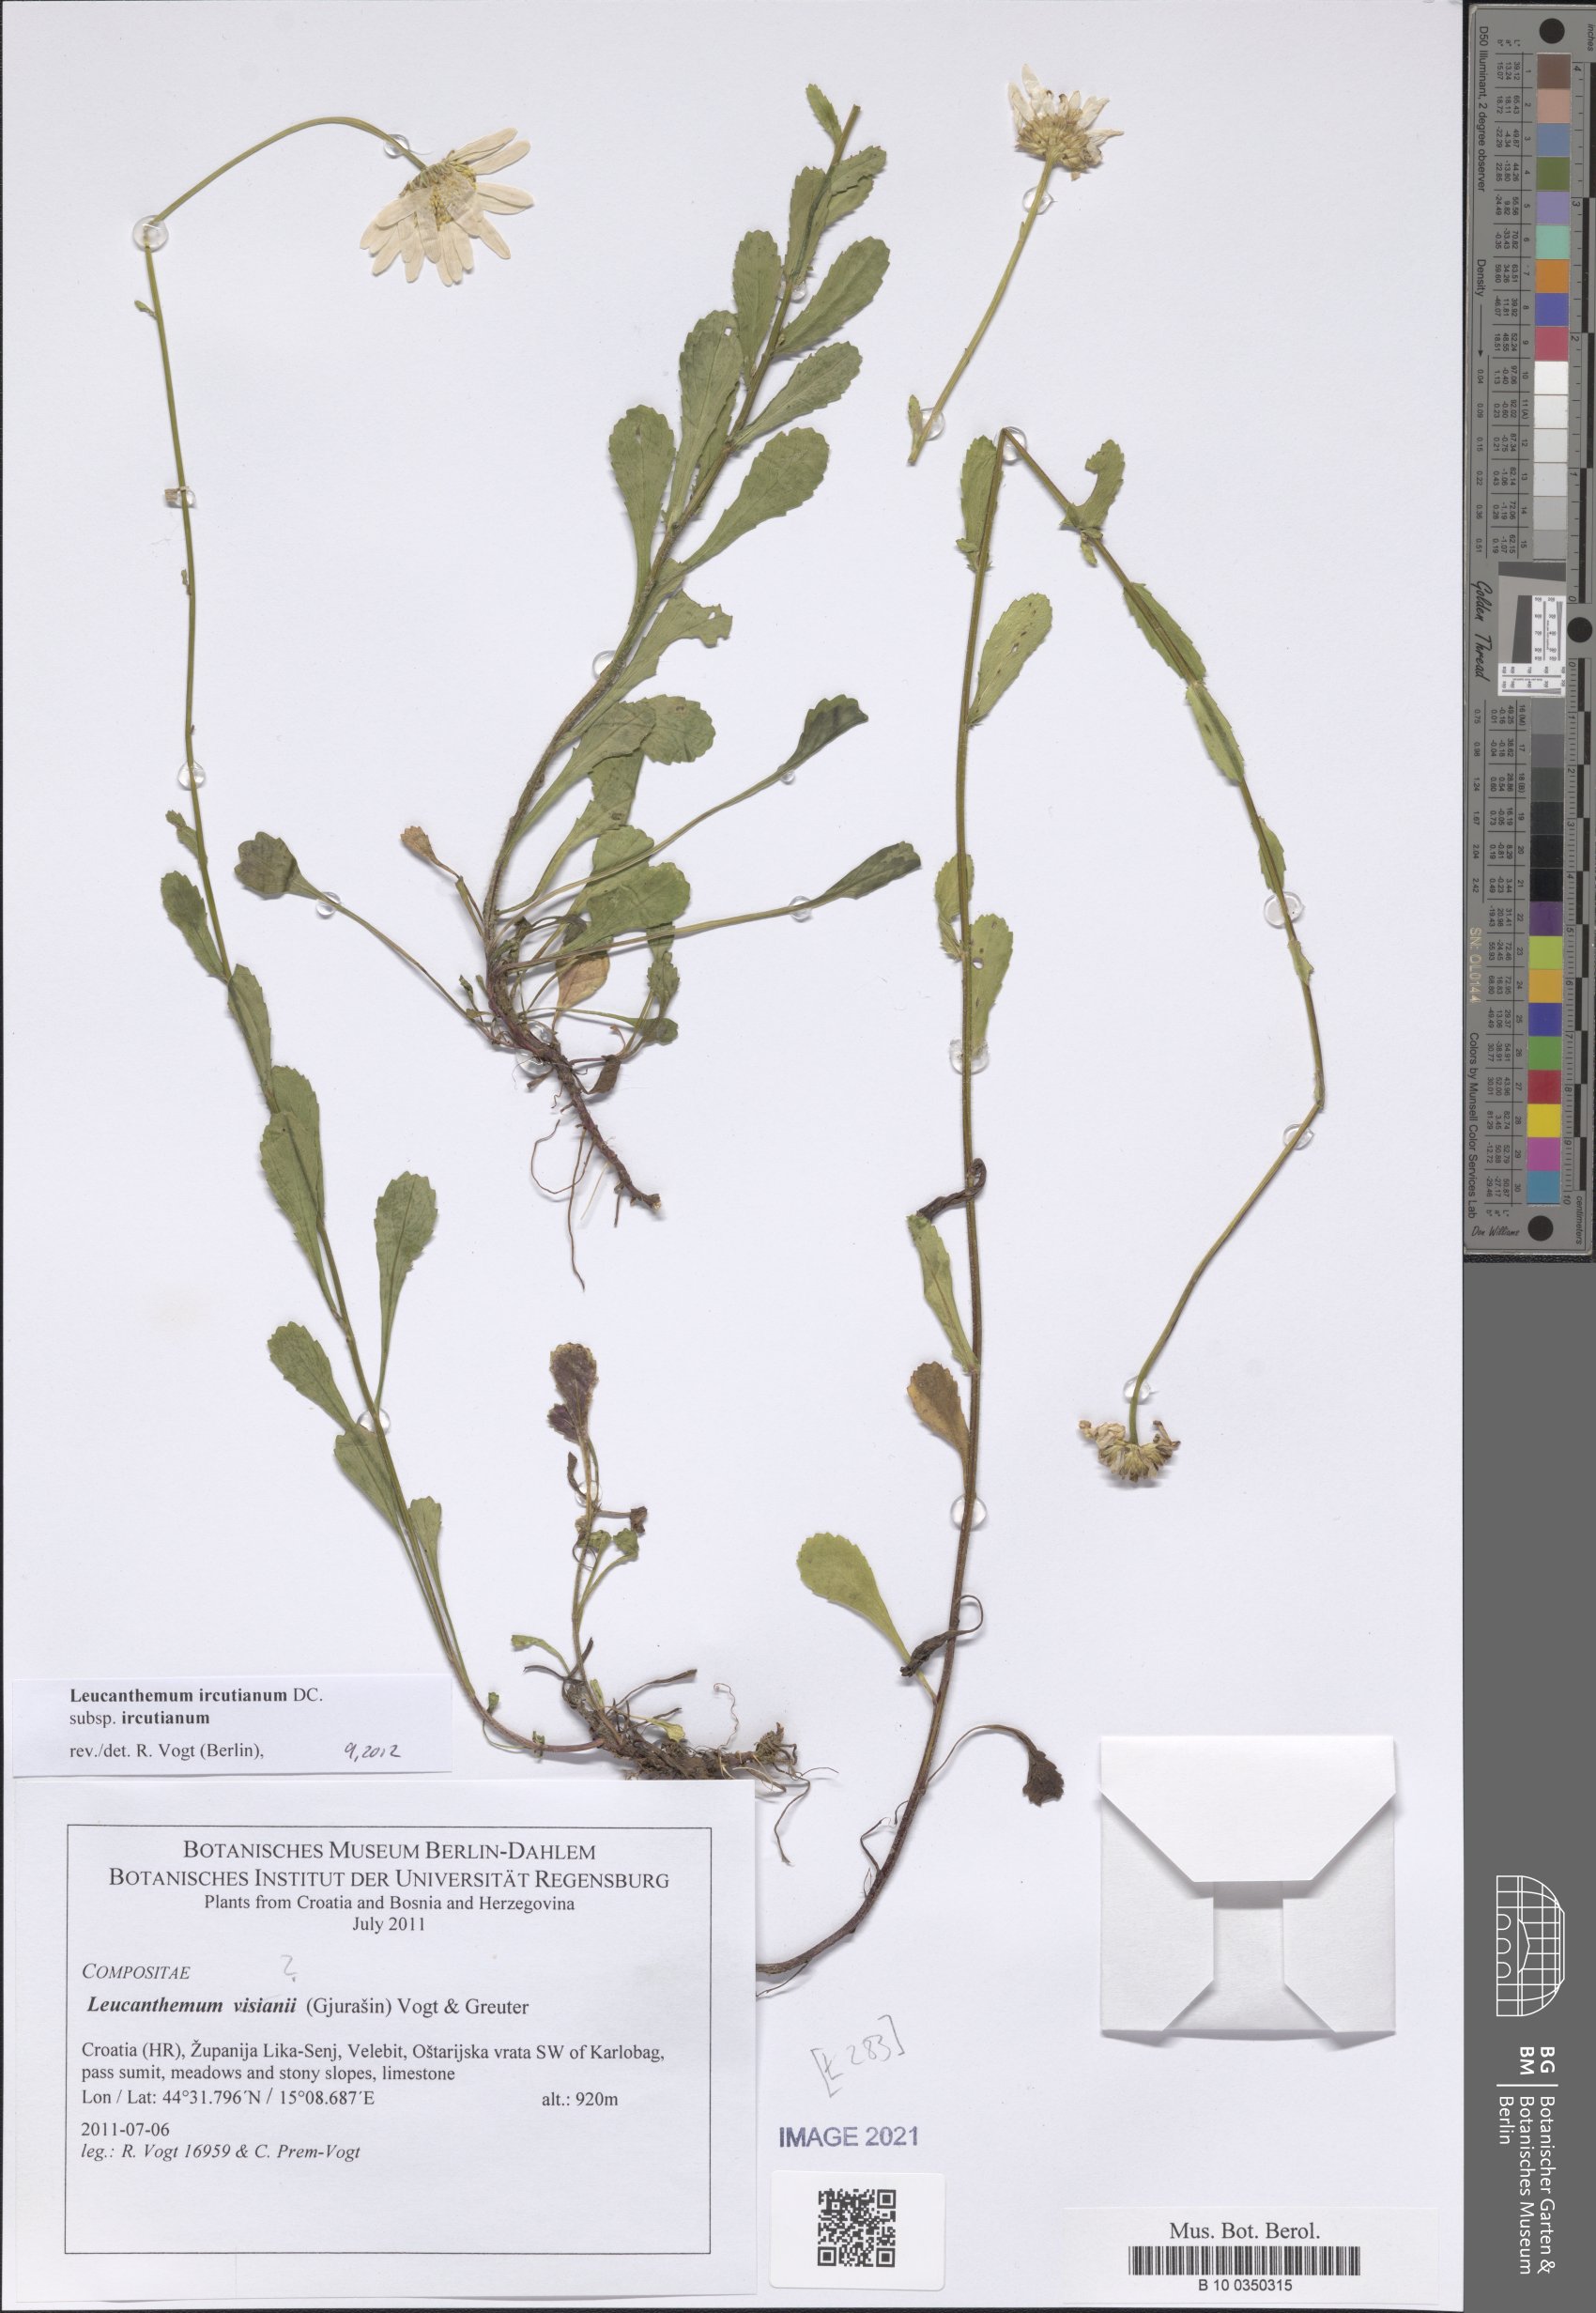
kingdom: Plantae
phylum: Tracheophyta
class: Magnoliopsida
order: Asterales
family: Asteraceae
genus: Leucanthemum
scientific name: Leucanthemum ircutianum
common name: Daisy
